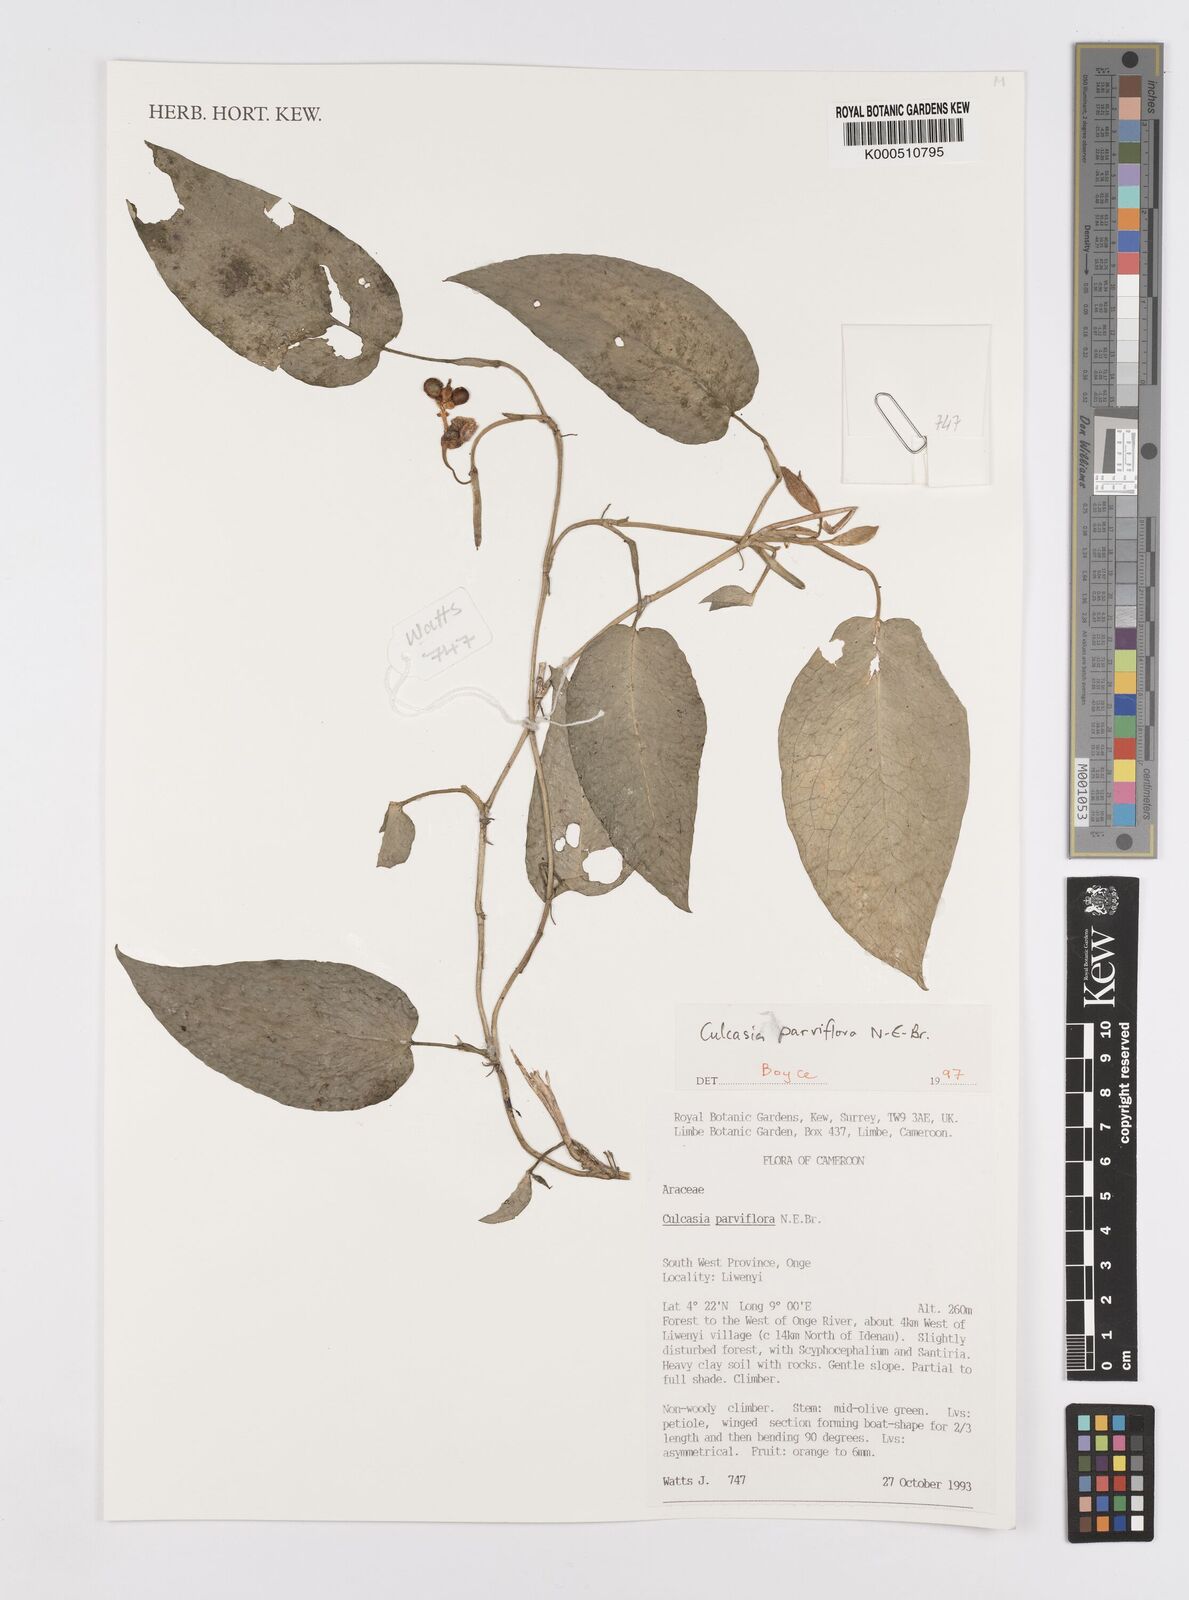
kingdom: Plantae
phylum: Tracheophyta
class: Liliopsida
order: Alismatales
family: Araceae
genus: Culcasia
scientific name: Culcasia parviflora
